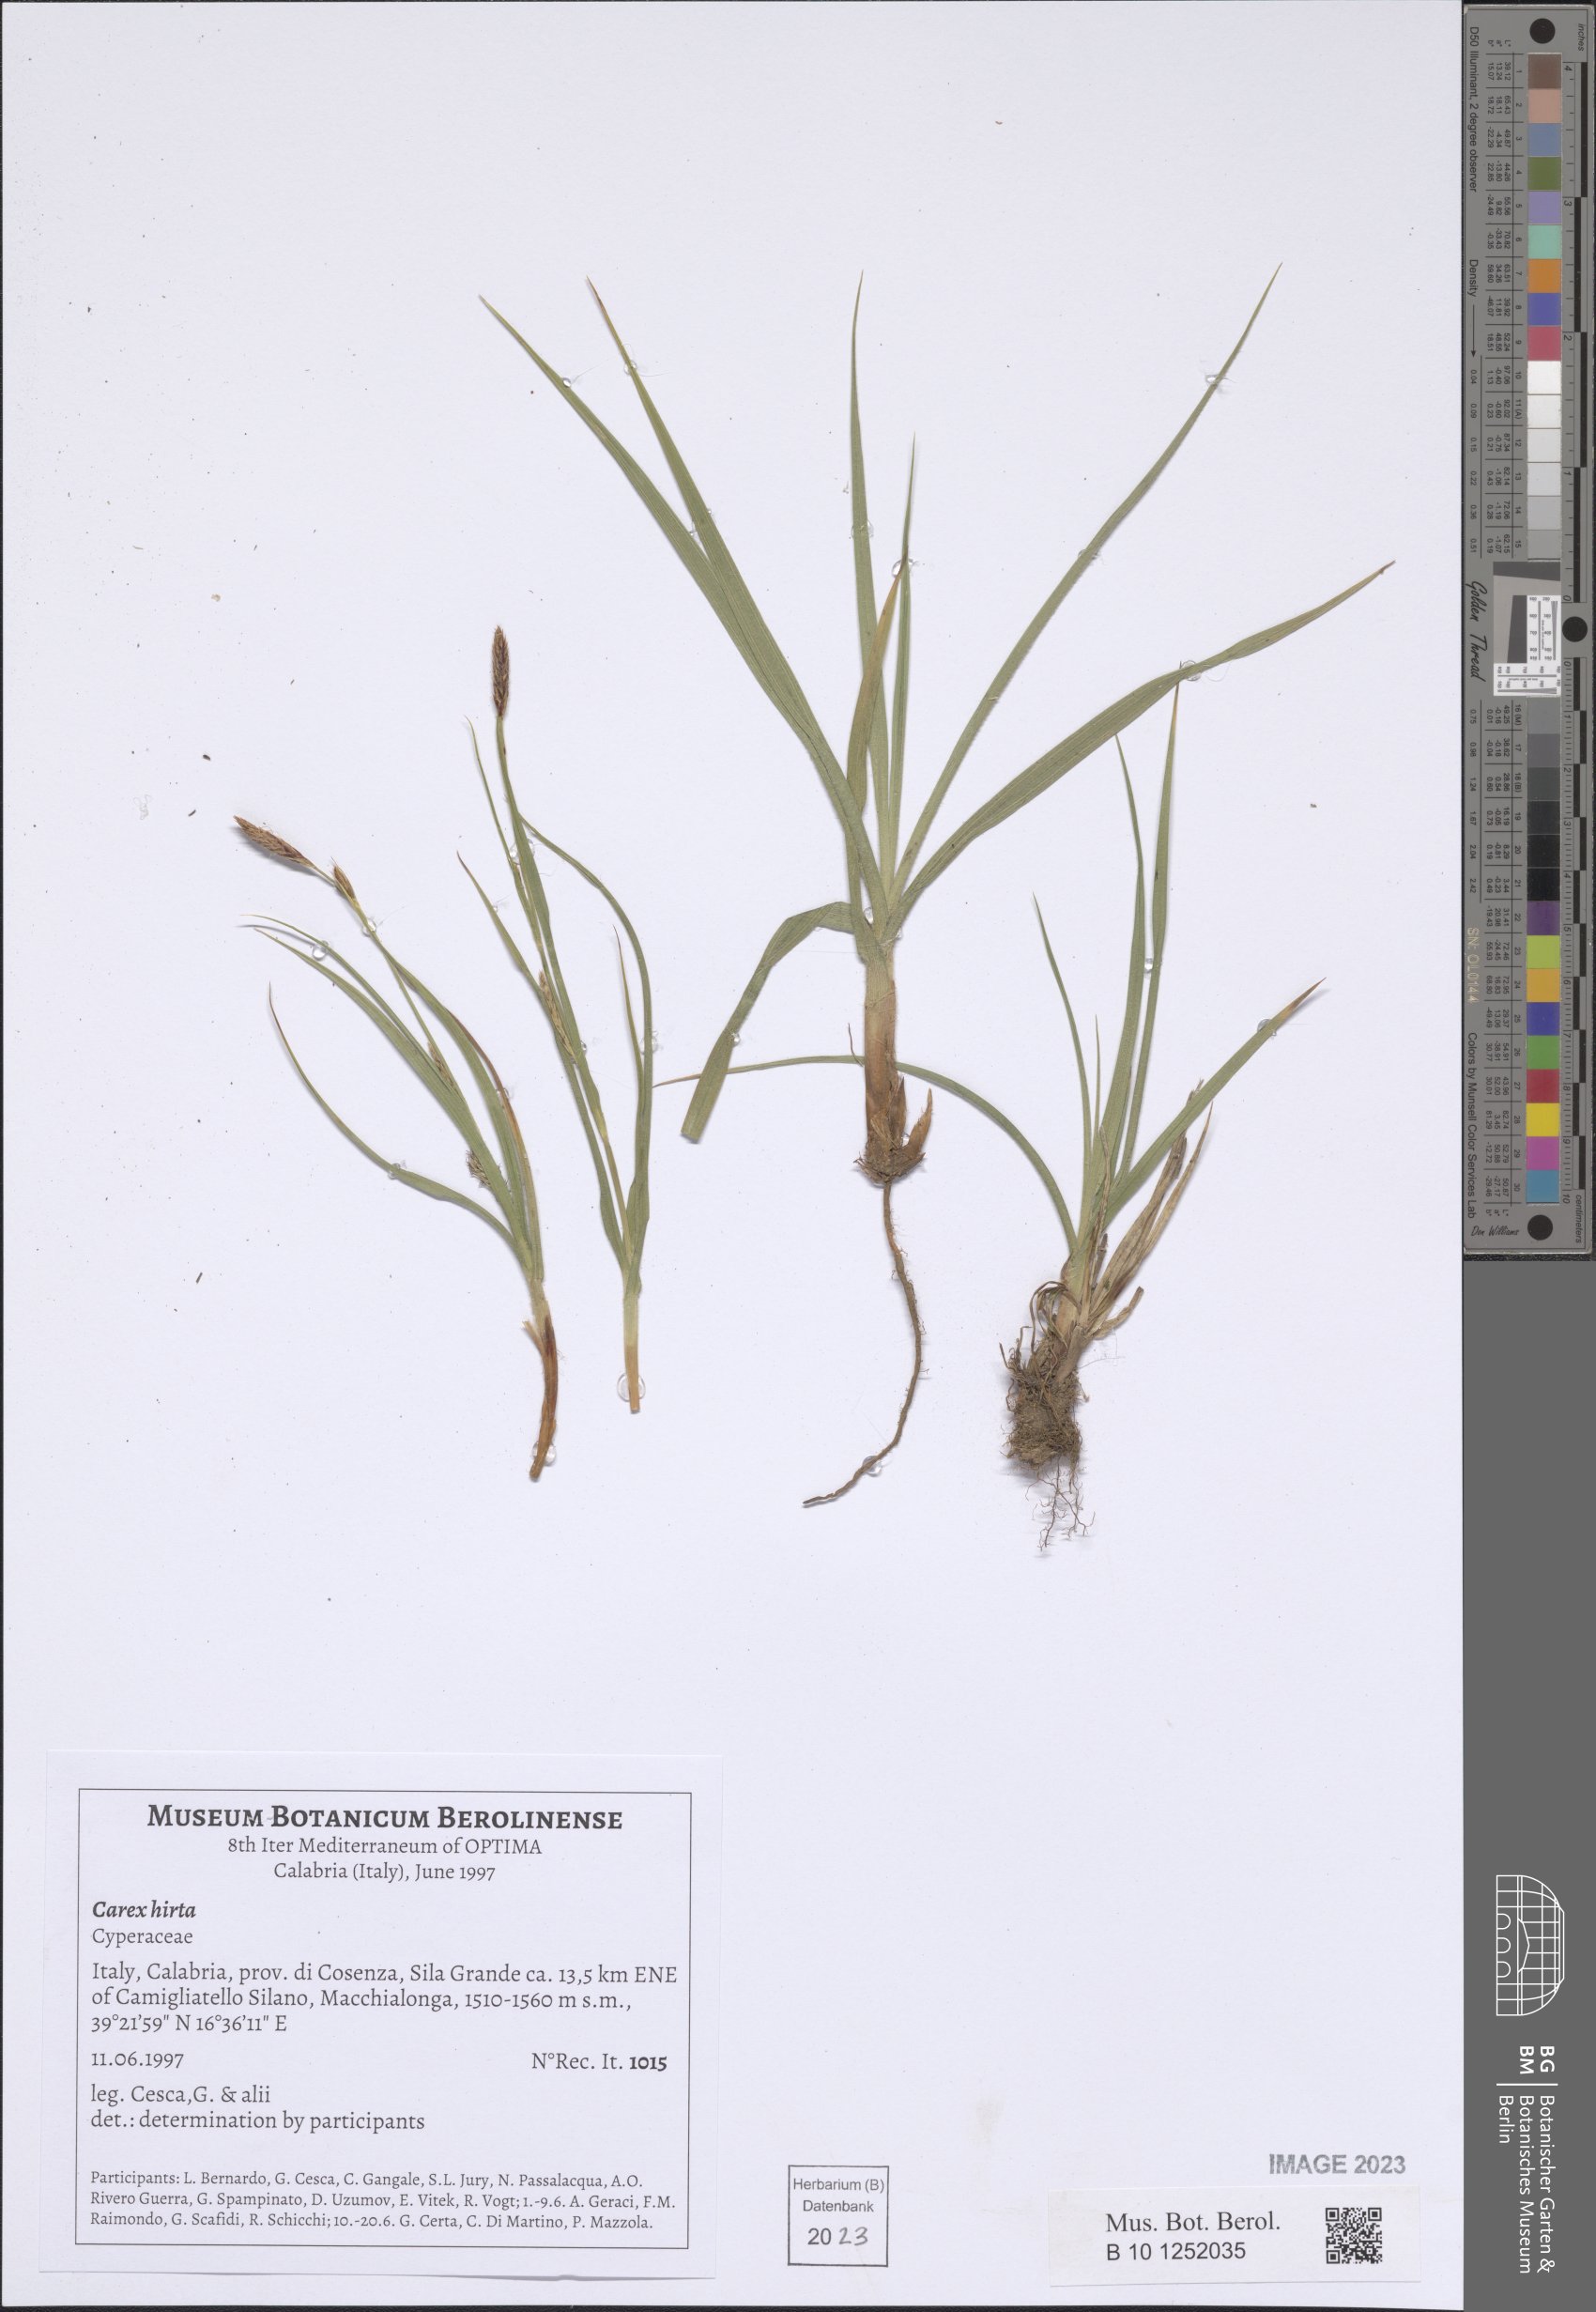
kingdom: Plantae
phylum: Tracheophyta
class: Liliopsida
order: Poales
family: Cyperaceae
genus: Carex
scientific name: Carex hirta
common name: Hairy sedge
